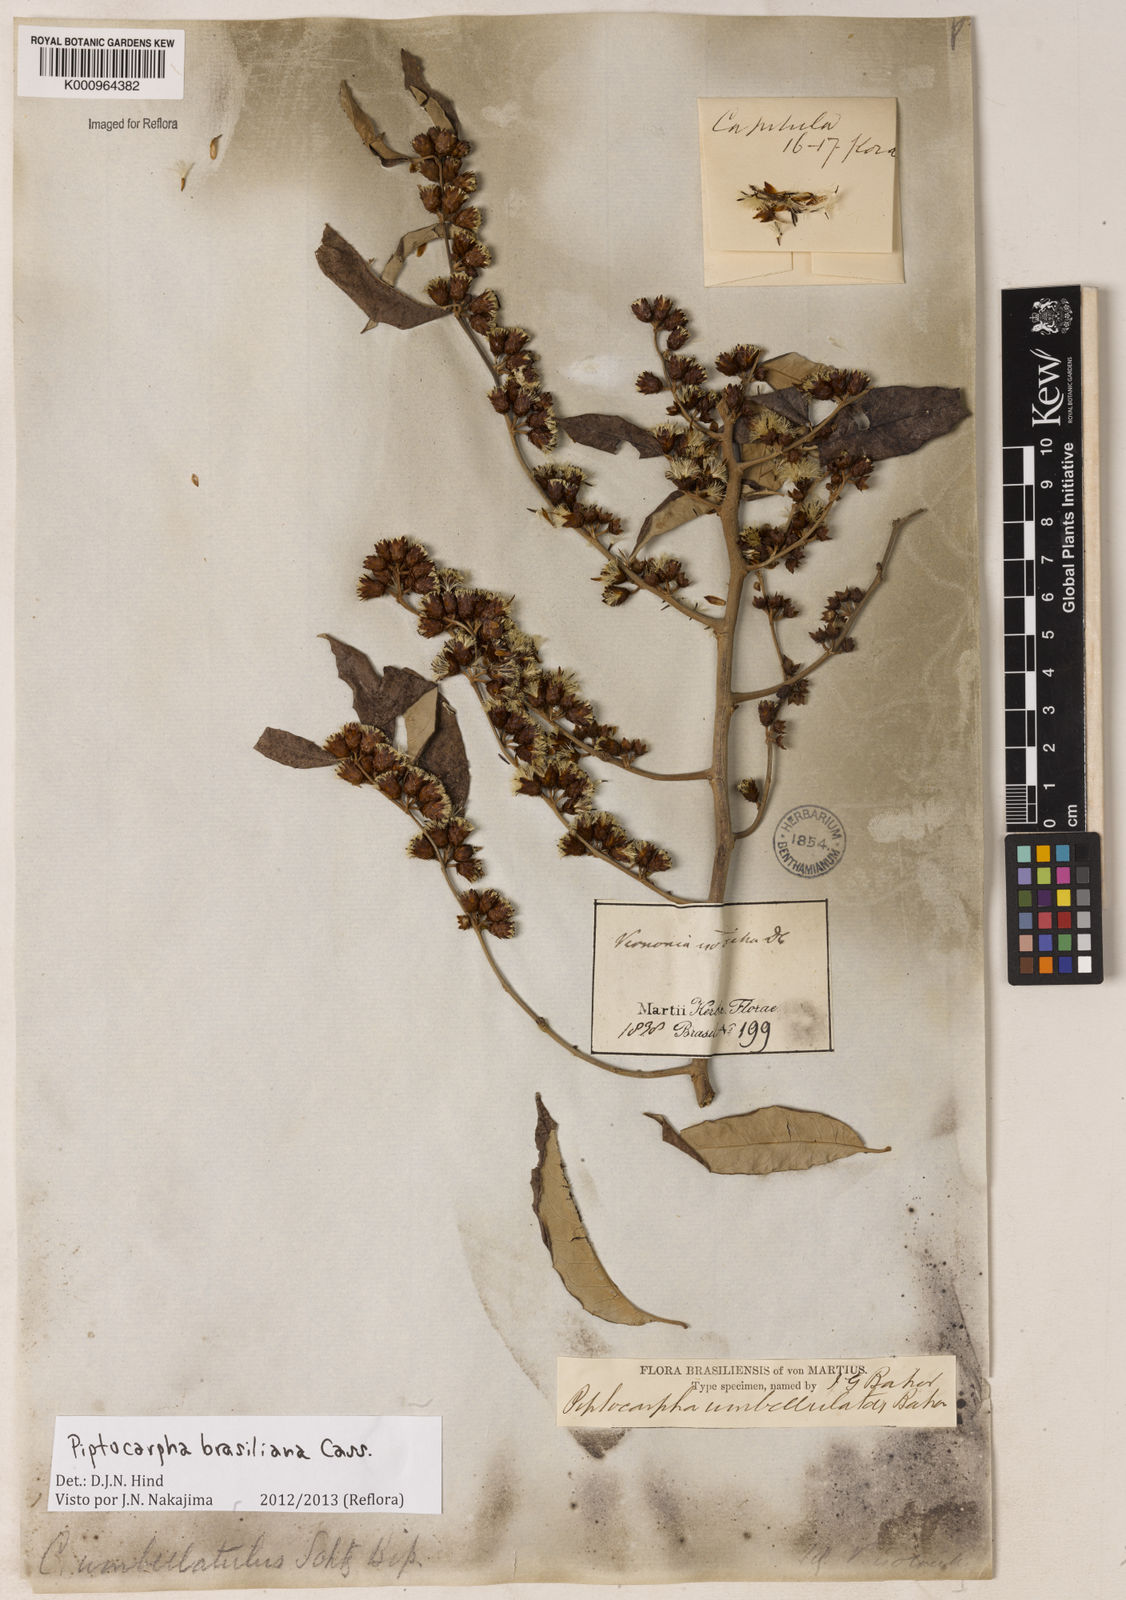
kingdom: Plantae
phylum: Tracheophyta
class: Magnoliopsida
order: Asterales
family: Asteraceae
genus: Piptocarpha
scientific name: Piptocarpha brasiliana
